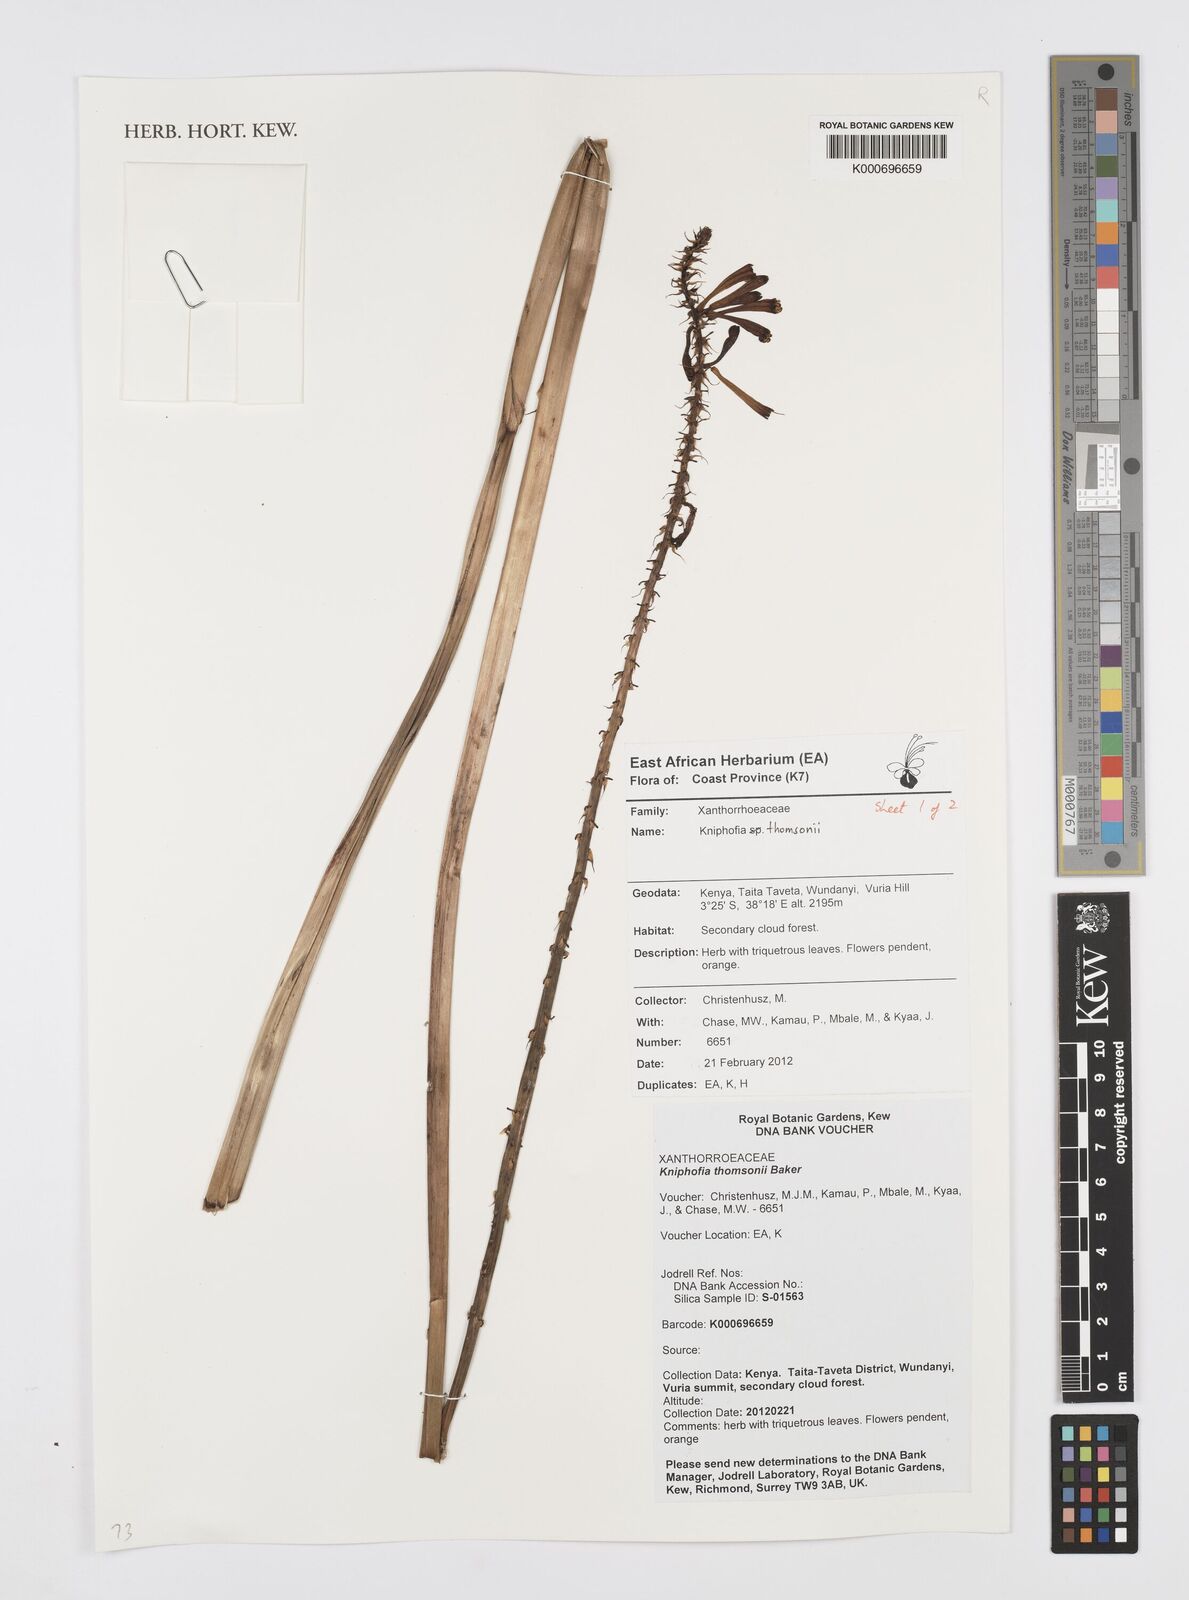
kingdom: Plantae
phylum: Tracheophyta
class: Liliopsida
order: Asparagales
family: Asphodelaceae
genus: Kniphofia
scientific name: Kniphofia thomsonii
